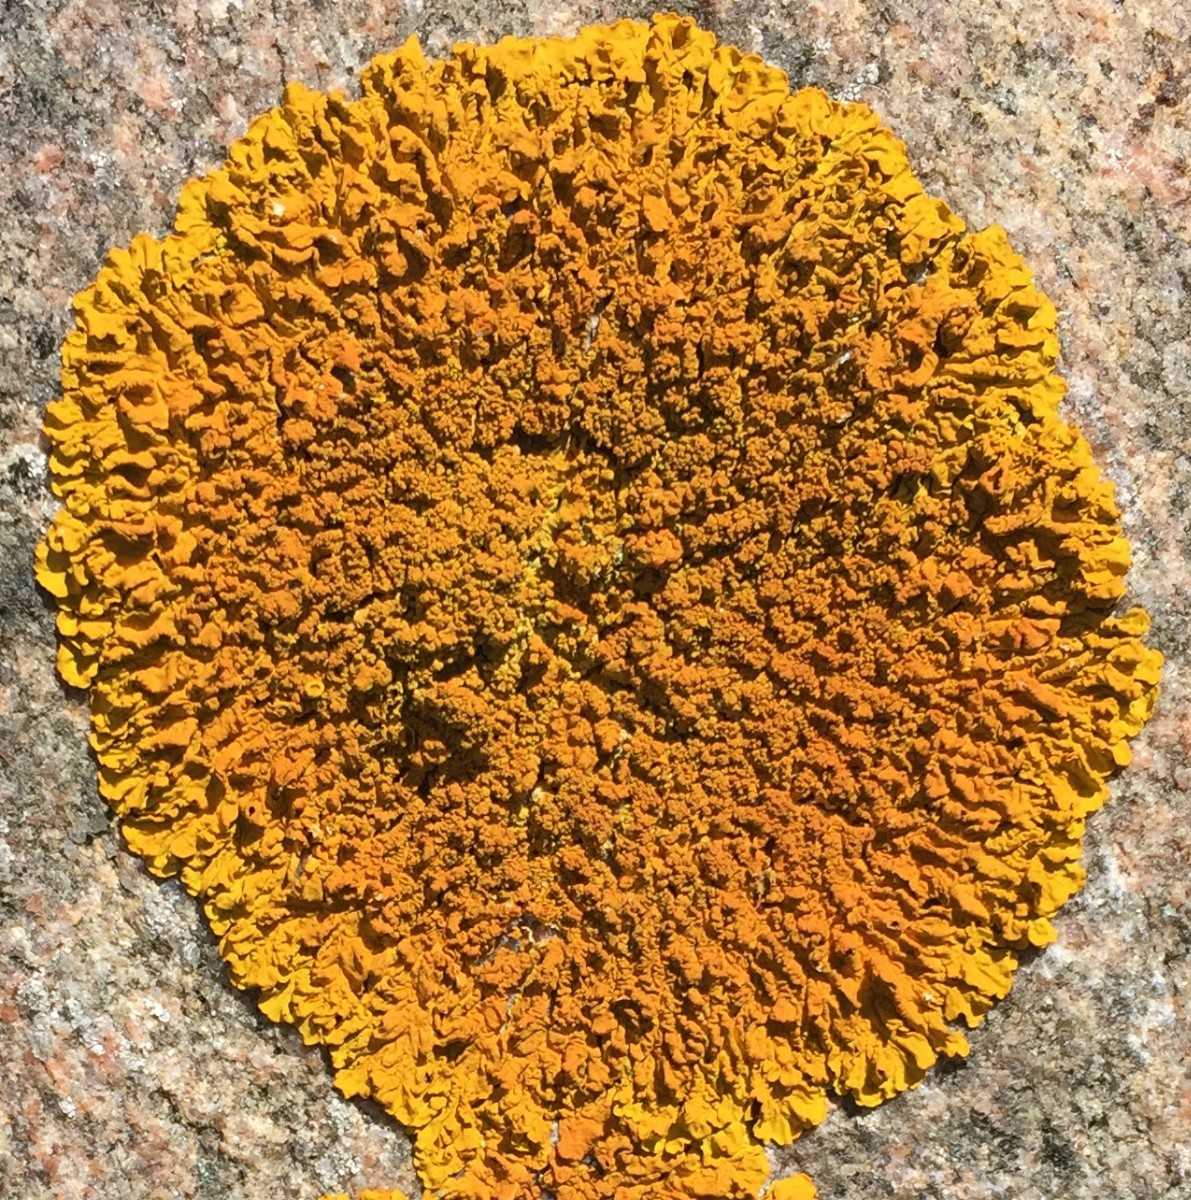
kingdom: Fungi
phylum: Ascomycota
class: Lecanoromycetes
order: Teloschistales
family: Teloschistaceae
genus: Xanthoria
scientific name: Xanthoria calcicola
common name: vortet væggelav
